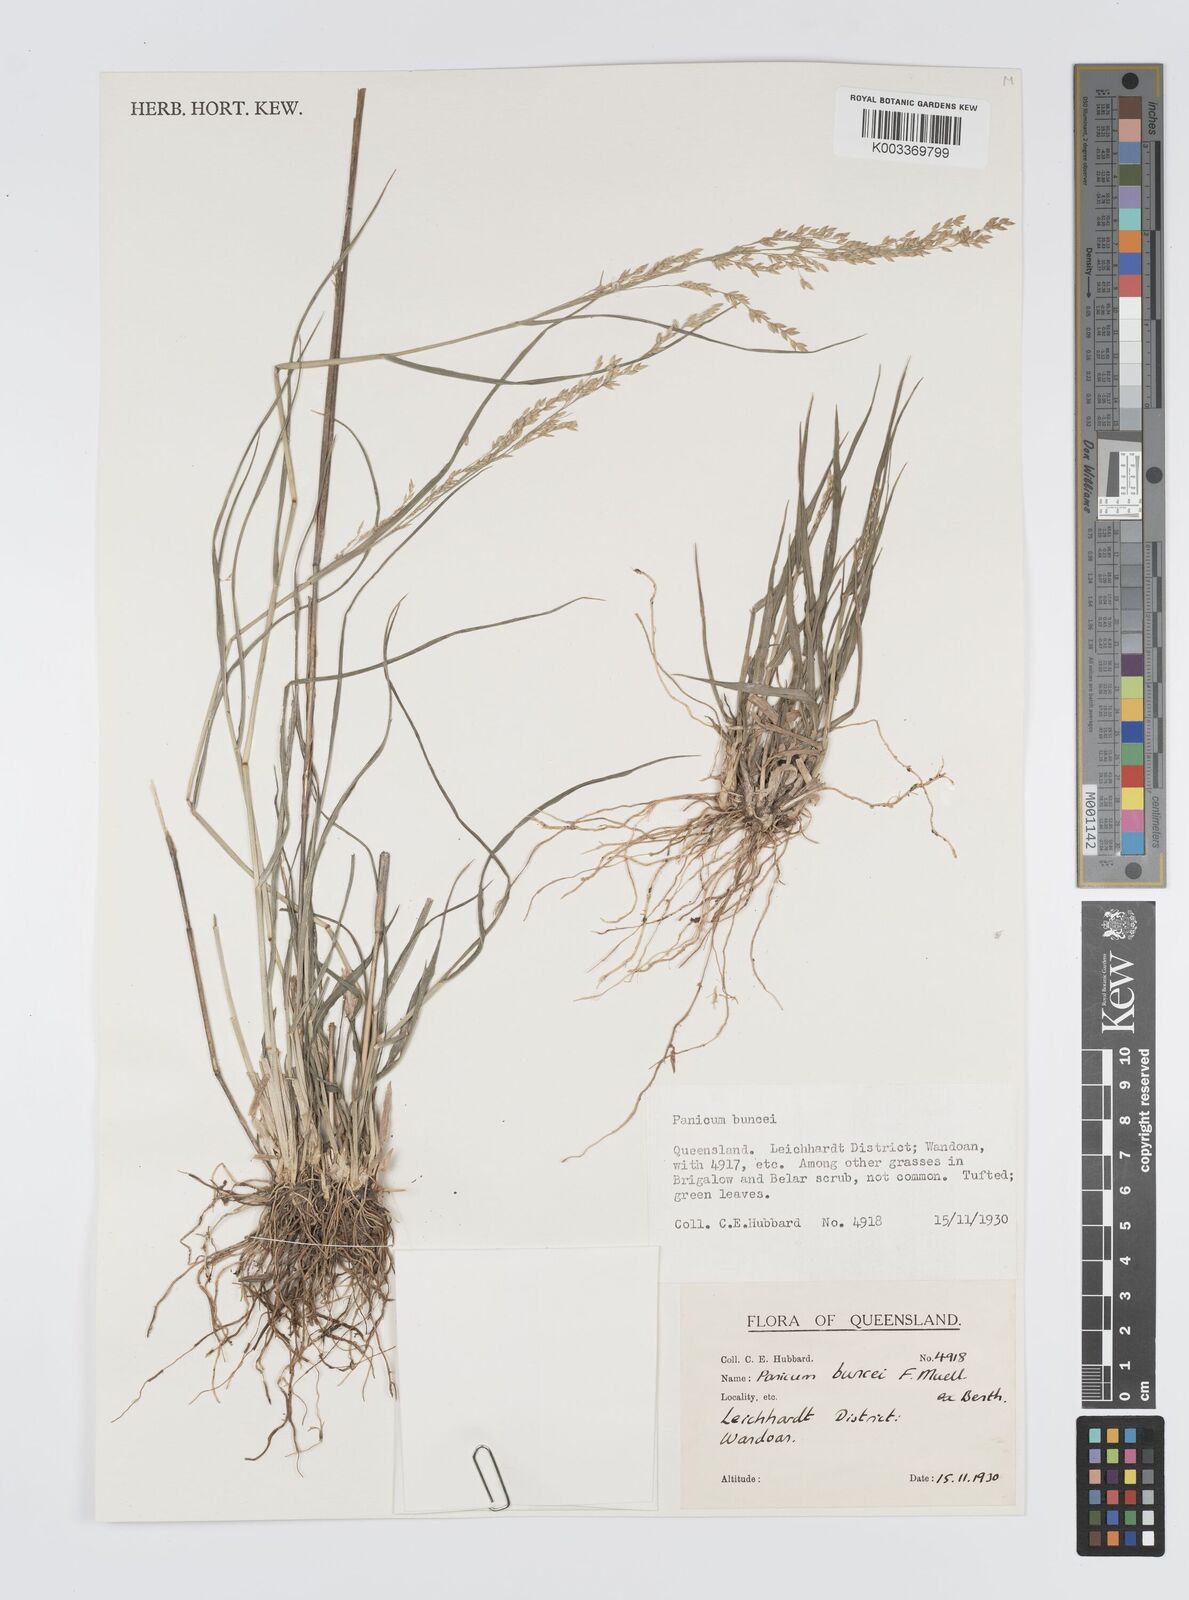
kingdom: Plantae
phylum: Tracheophyta
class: Liliopsida
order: Poales
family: Poaceae
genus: Panicum
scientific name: Panicum buncei
